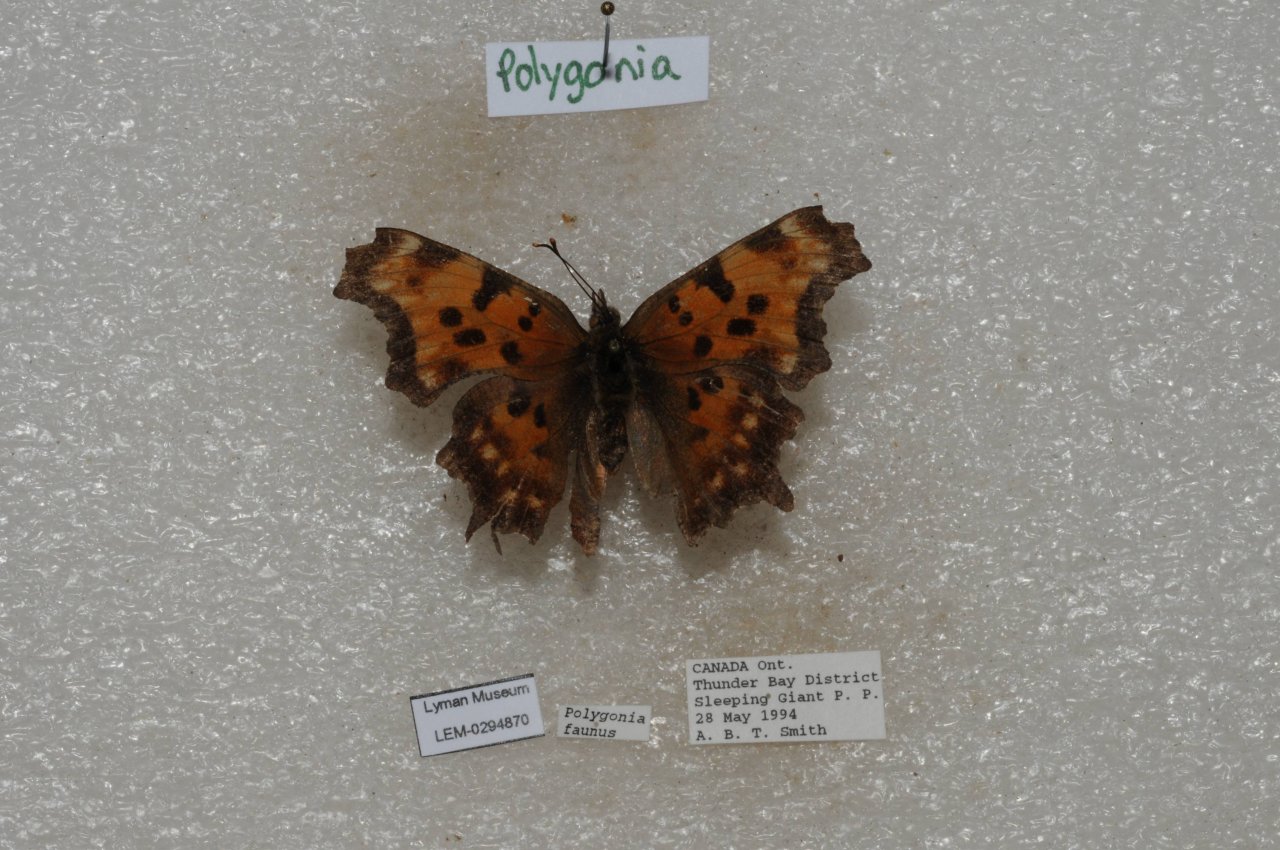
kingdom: Animalia
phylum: Arthropoda
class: Insecta
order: Lepidoptera
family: Nymphalidae
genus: Polygonia
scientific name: Polygonia faunus
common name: Green Comma
